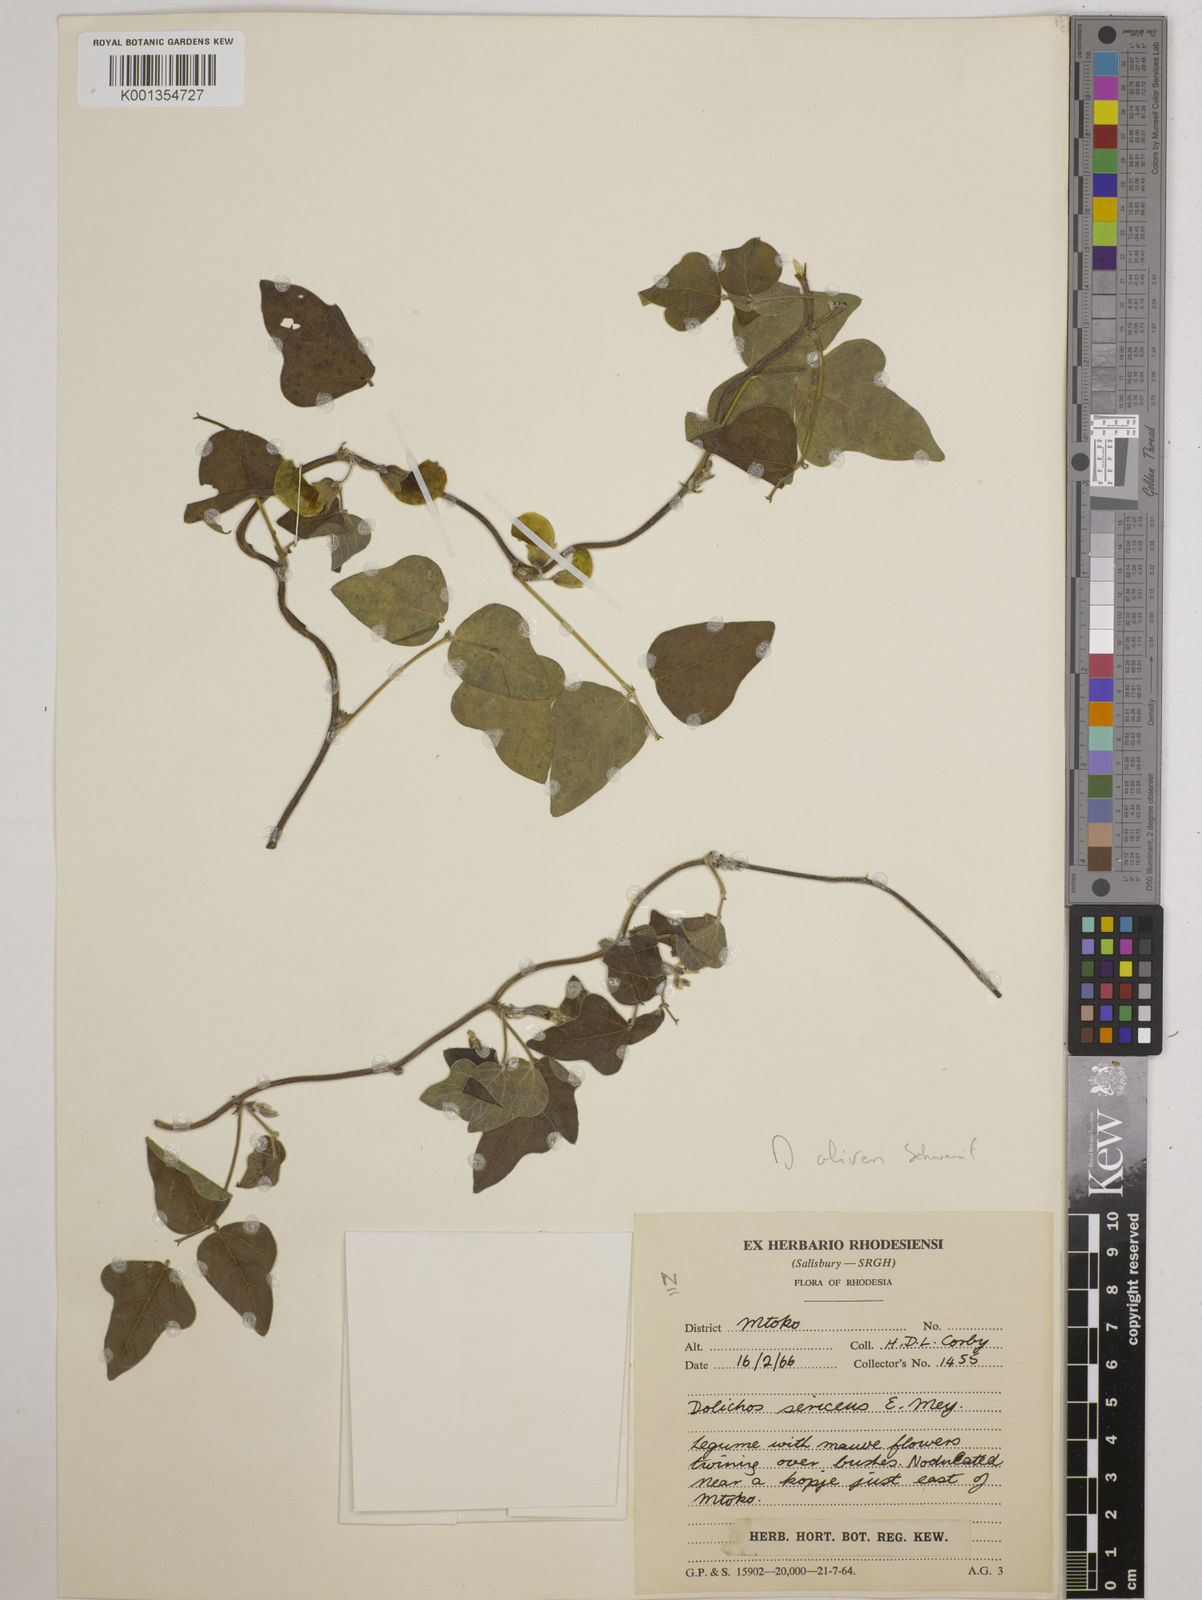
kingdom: Plantae
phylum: Tracheophyta
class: Magnoliopsida
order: Fabales
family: Fabaceae
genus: Dolichos
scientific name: Dolichos oliveri
